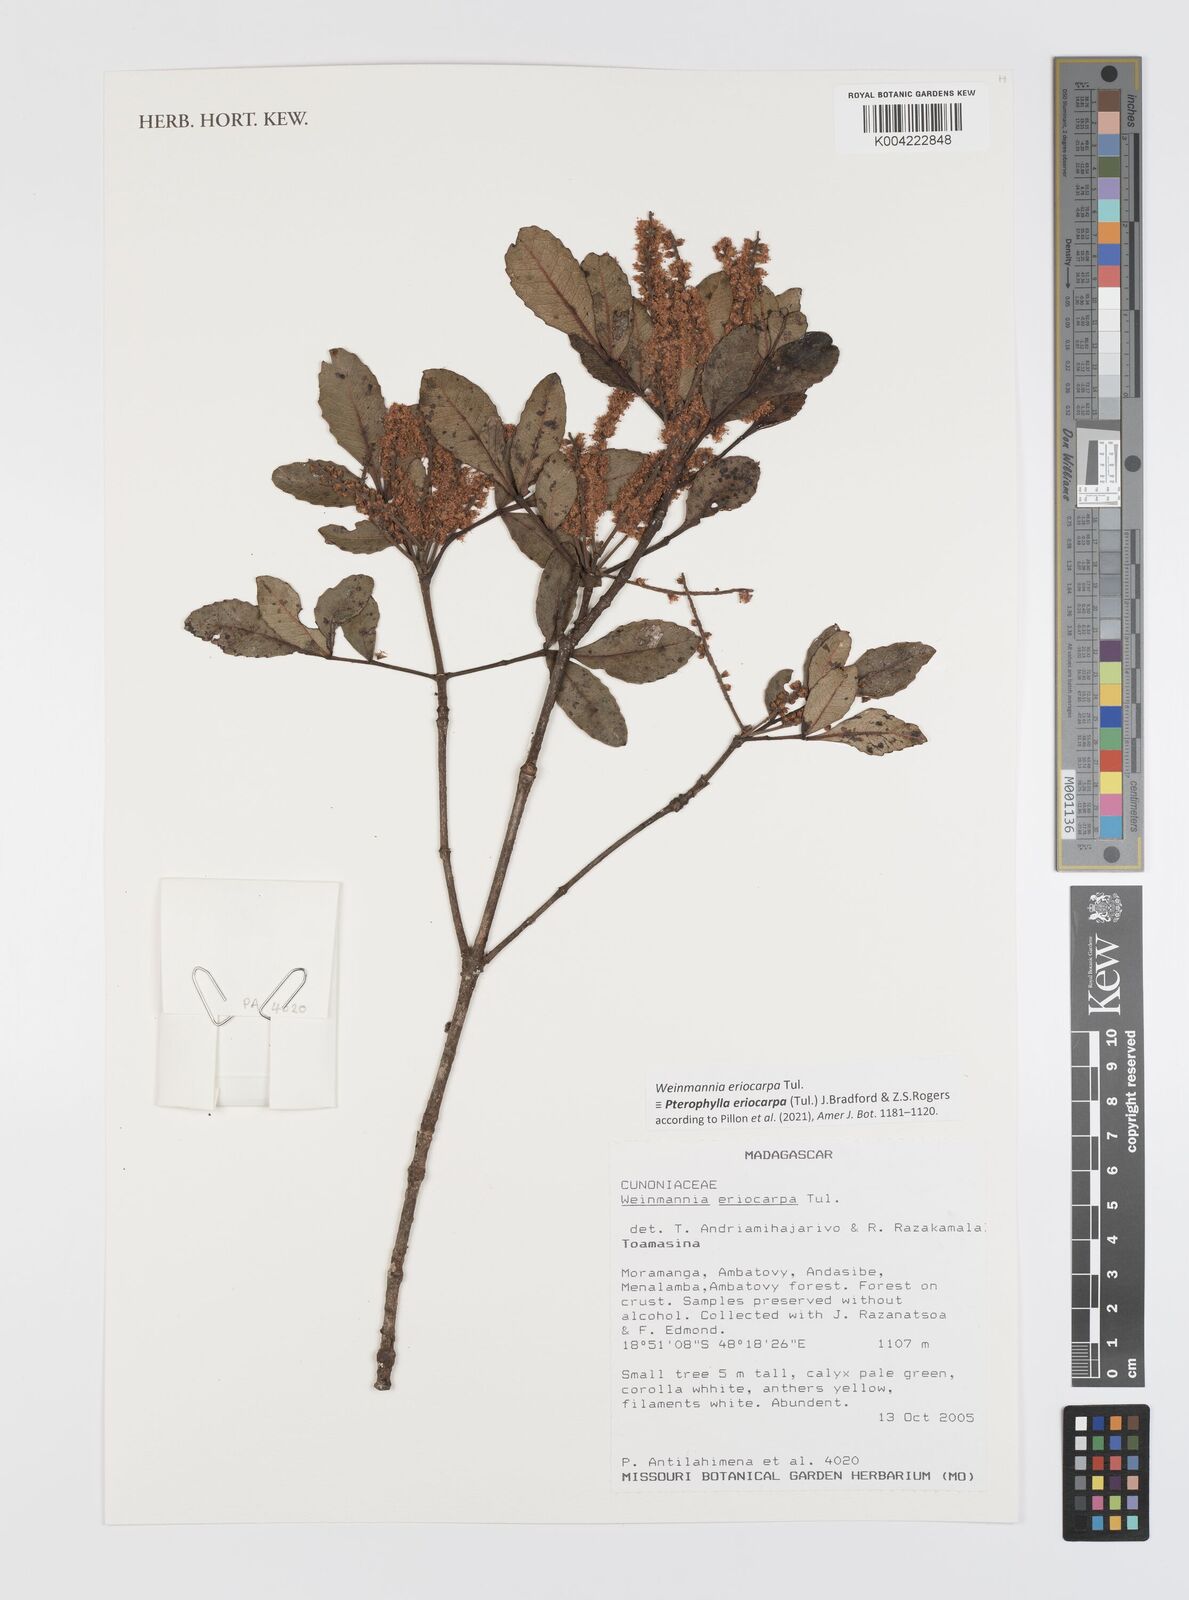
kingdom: Plantae
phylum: Tracheophyta
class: Magnoliopsida
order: Oxalidales
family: Cunoniaceae
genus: Pterophylla
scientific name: Pterophylla eriocarpa
